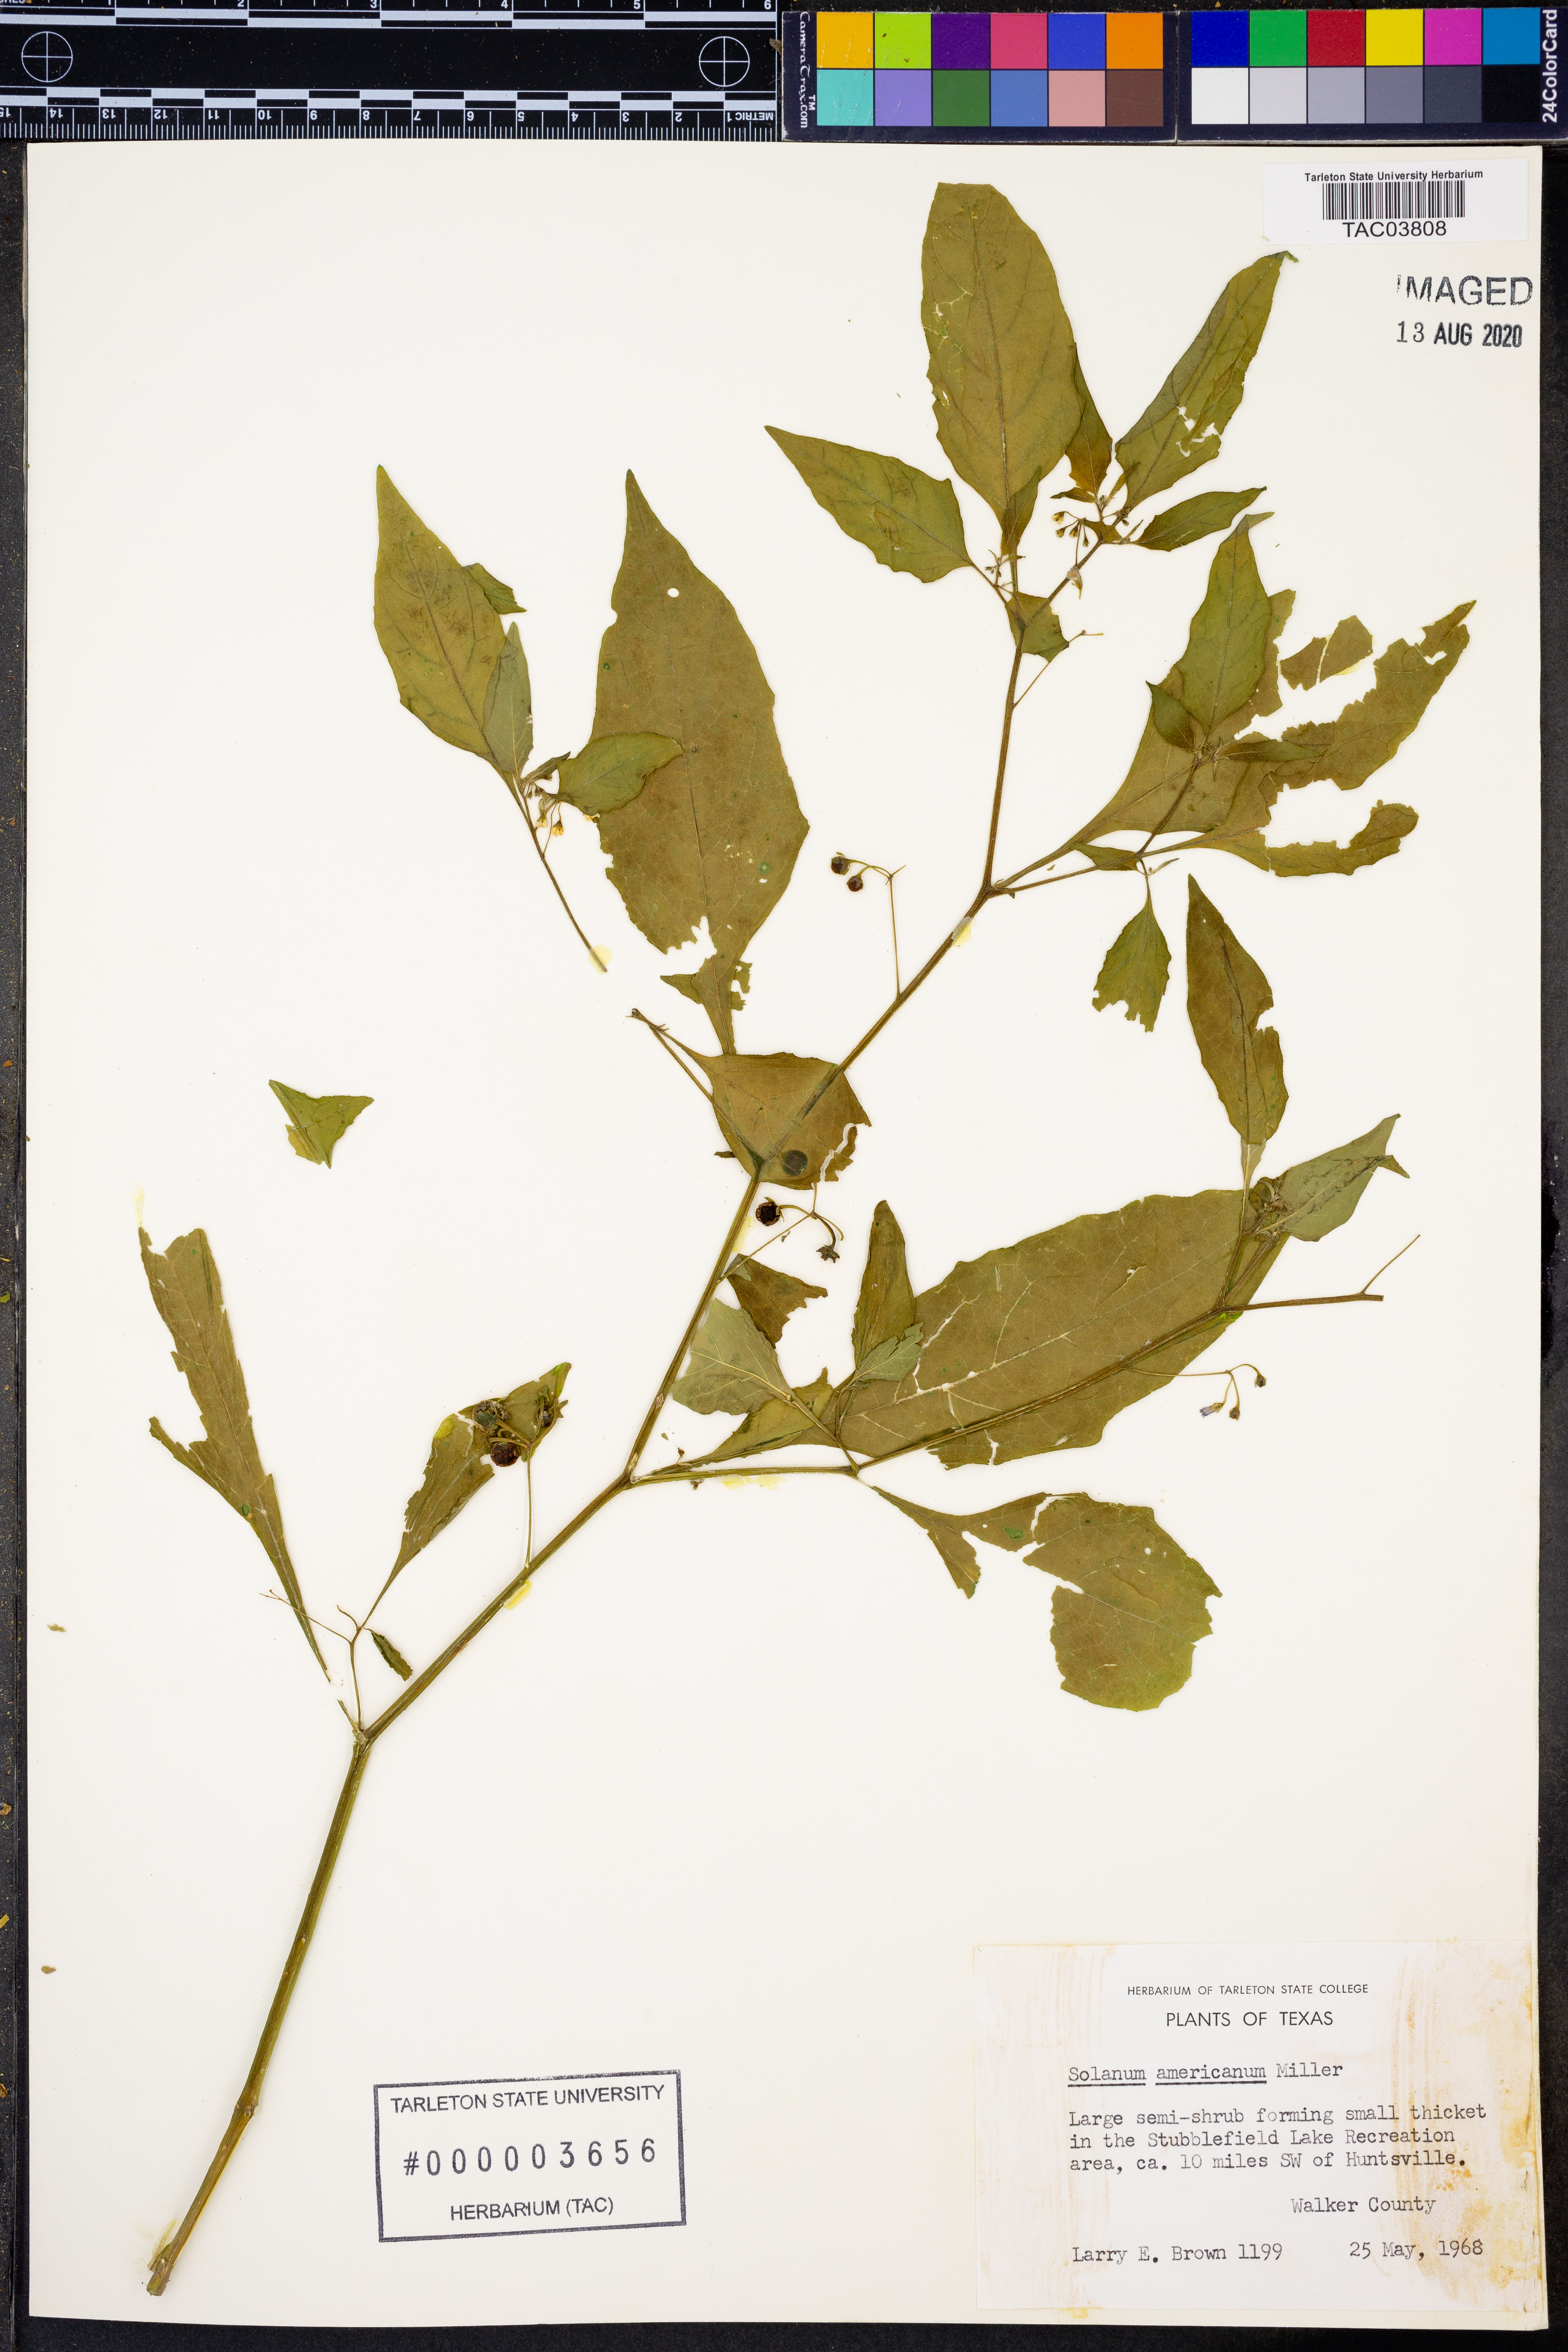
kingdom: Plantae
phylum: Tracheophyta
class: Magnoliopsida
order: Solanales
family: Solanaceae
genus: Solanum
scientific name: Solanum americanum
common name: American black nightshade
